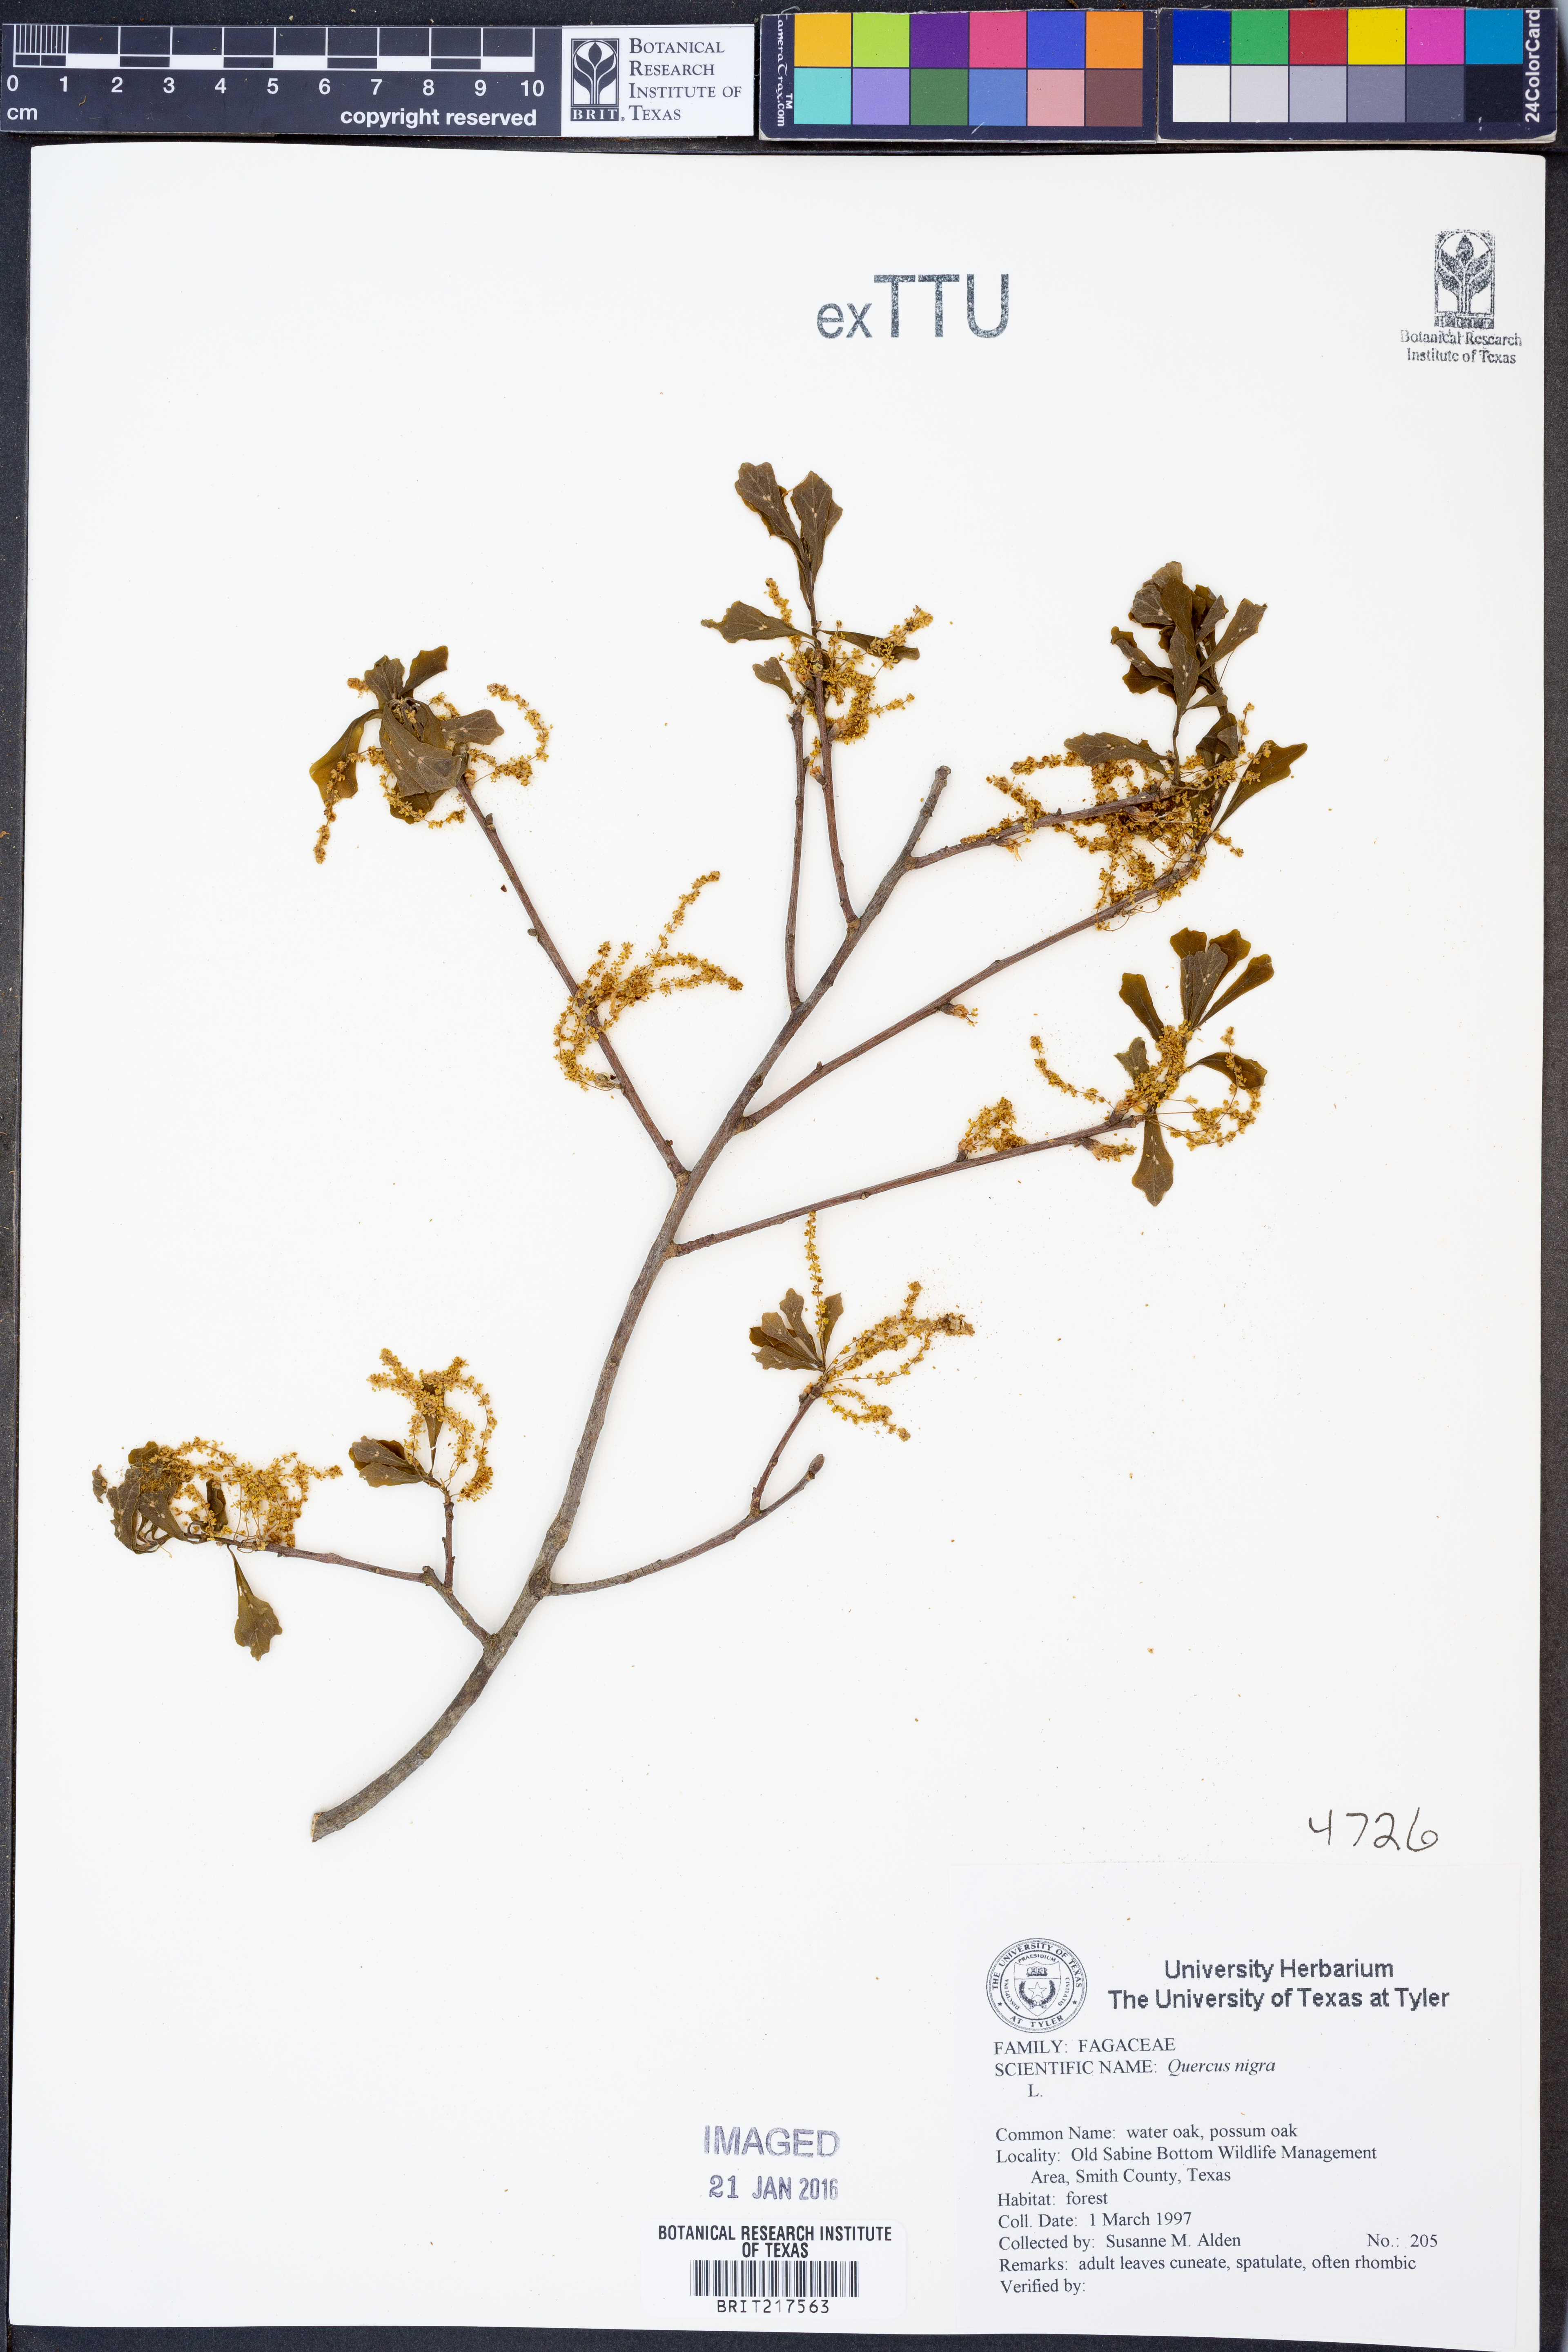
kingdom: Plantae
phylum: Tracheophyta
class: Magnoliopsida
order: Fagales
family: Fagaceae
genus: Quercus
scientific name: Quercus nigra
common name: Water oak
